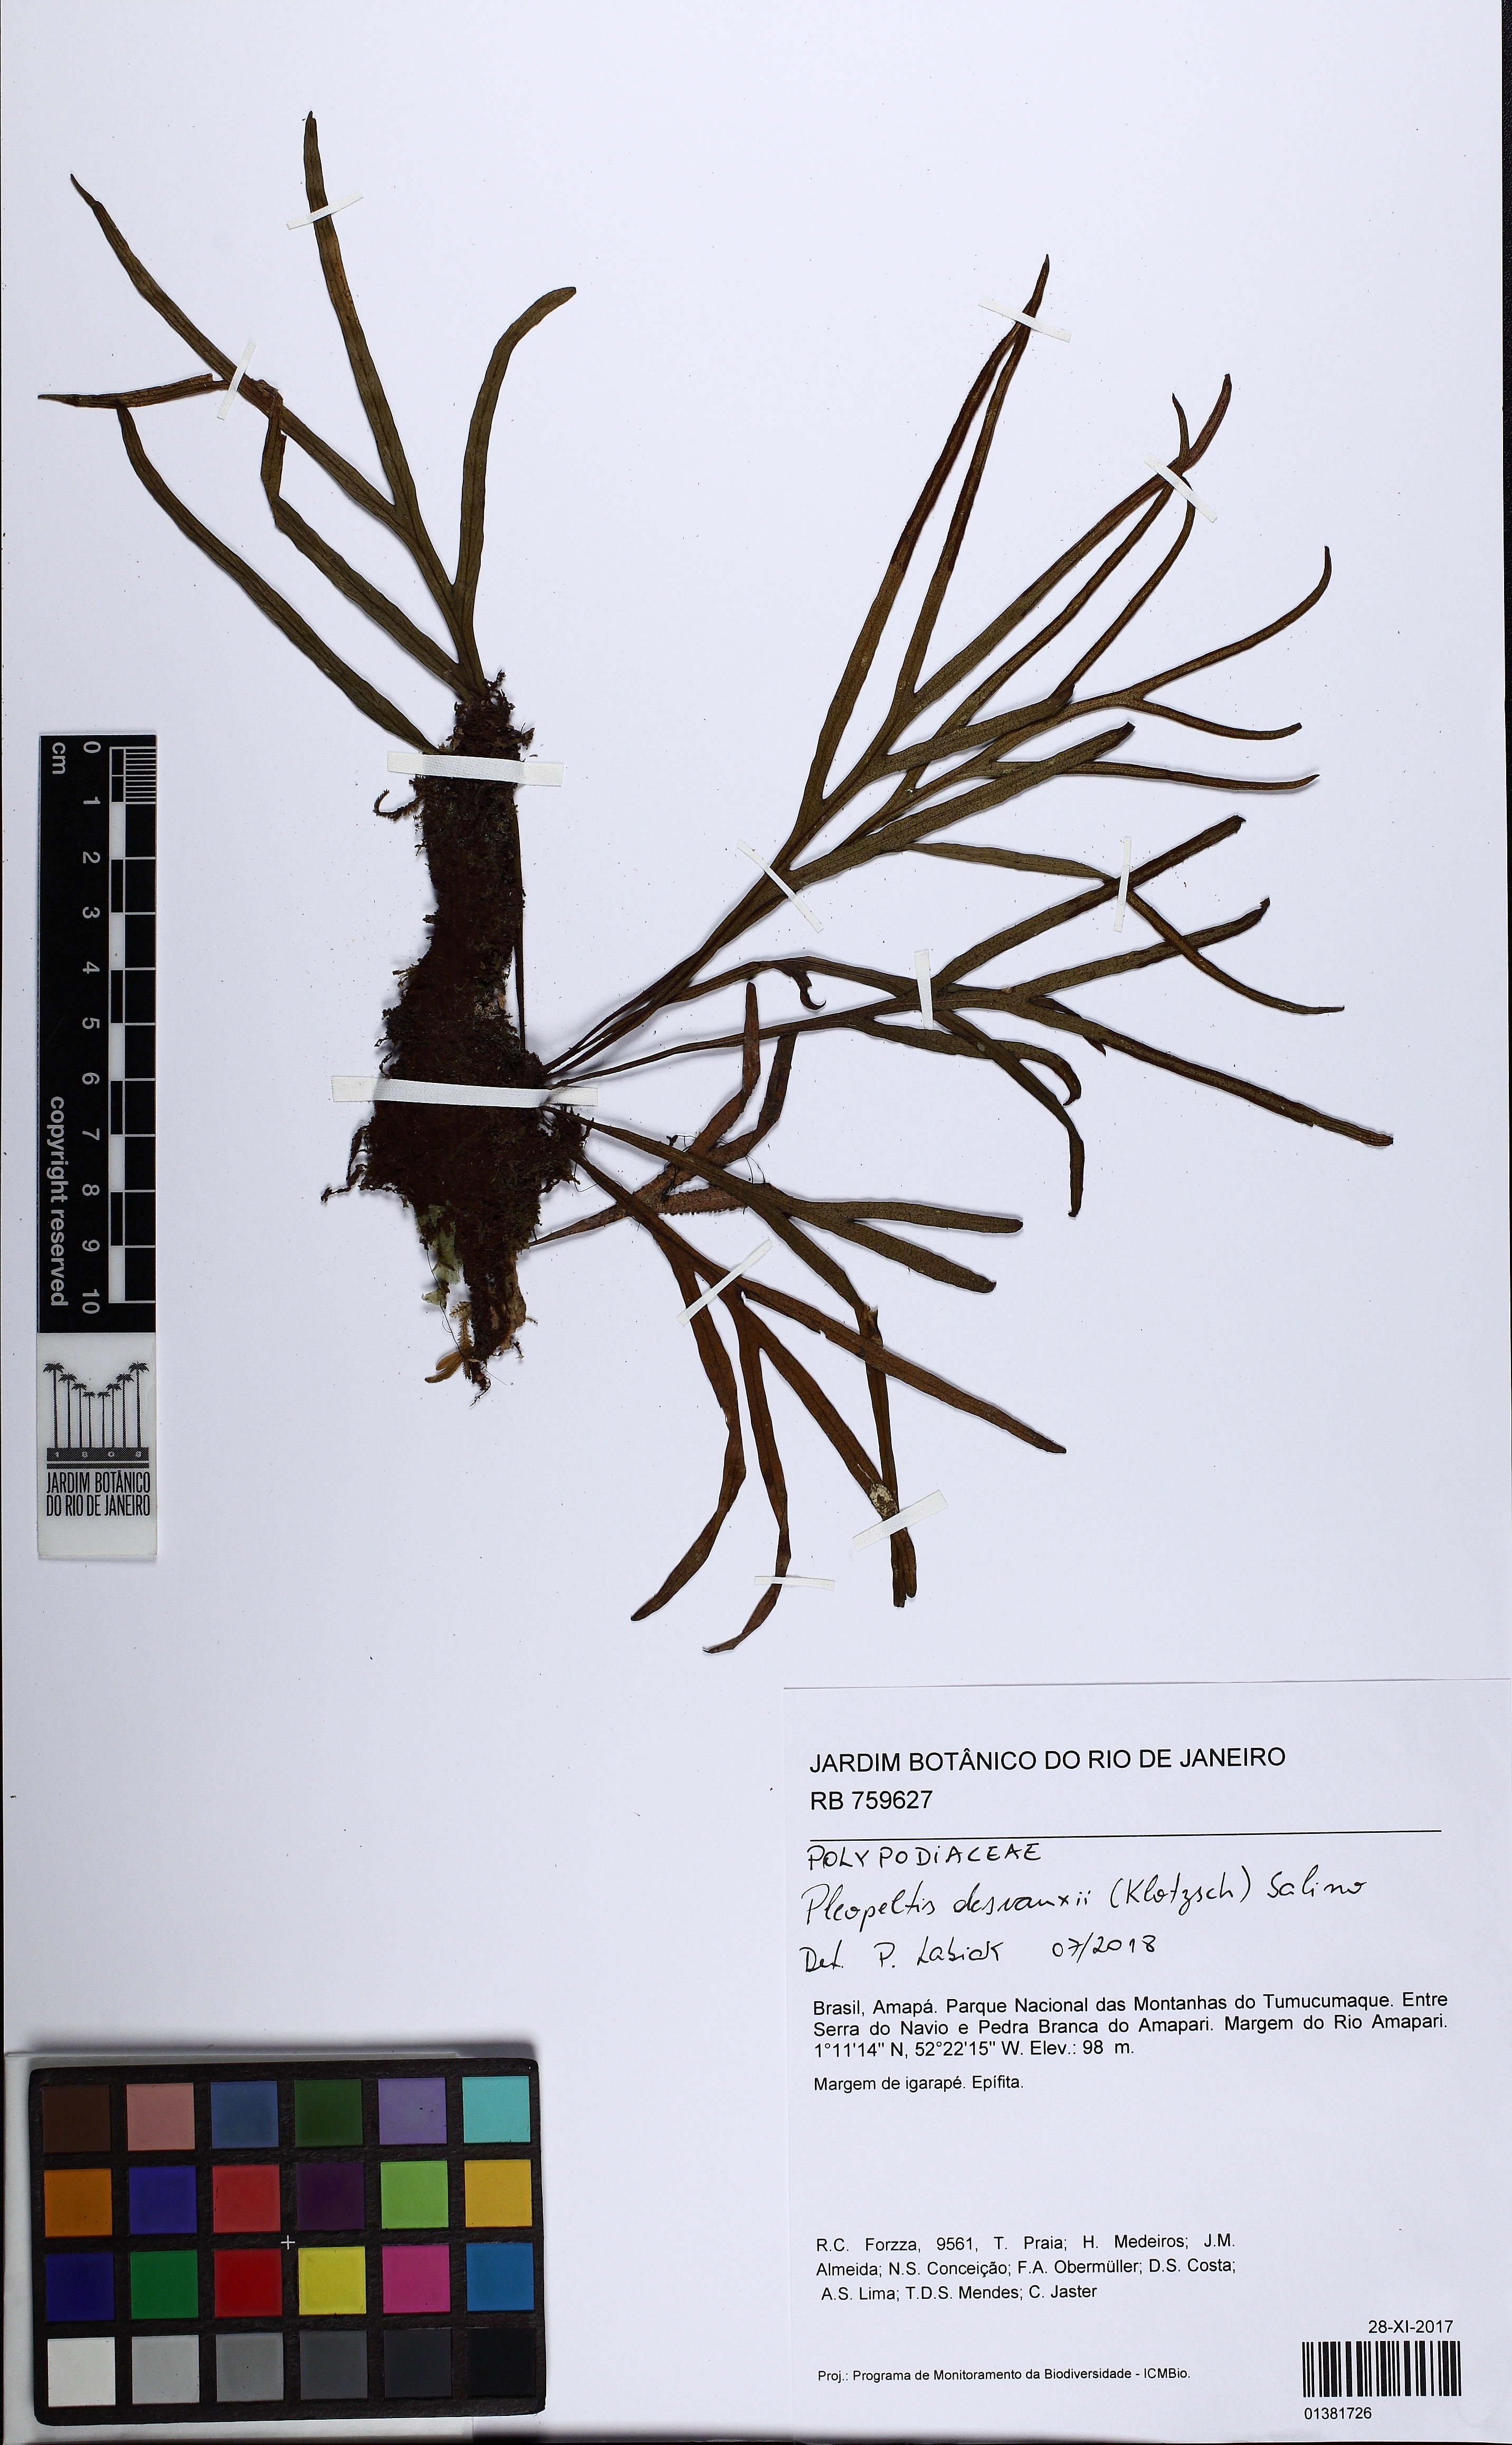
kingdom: Plantae
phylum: Tracheophyta
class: Polypodiopsida
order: Polypodiales
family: Polypodiaceae
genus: Pleopeltis
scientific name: Pleopeltis desvauxii
